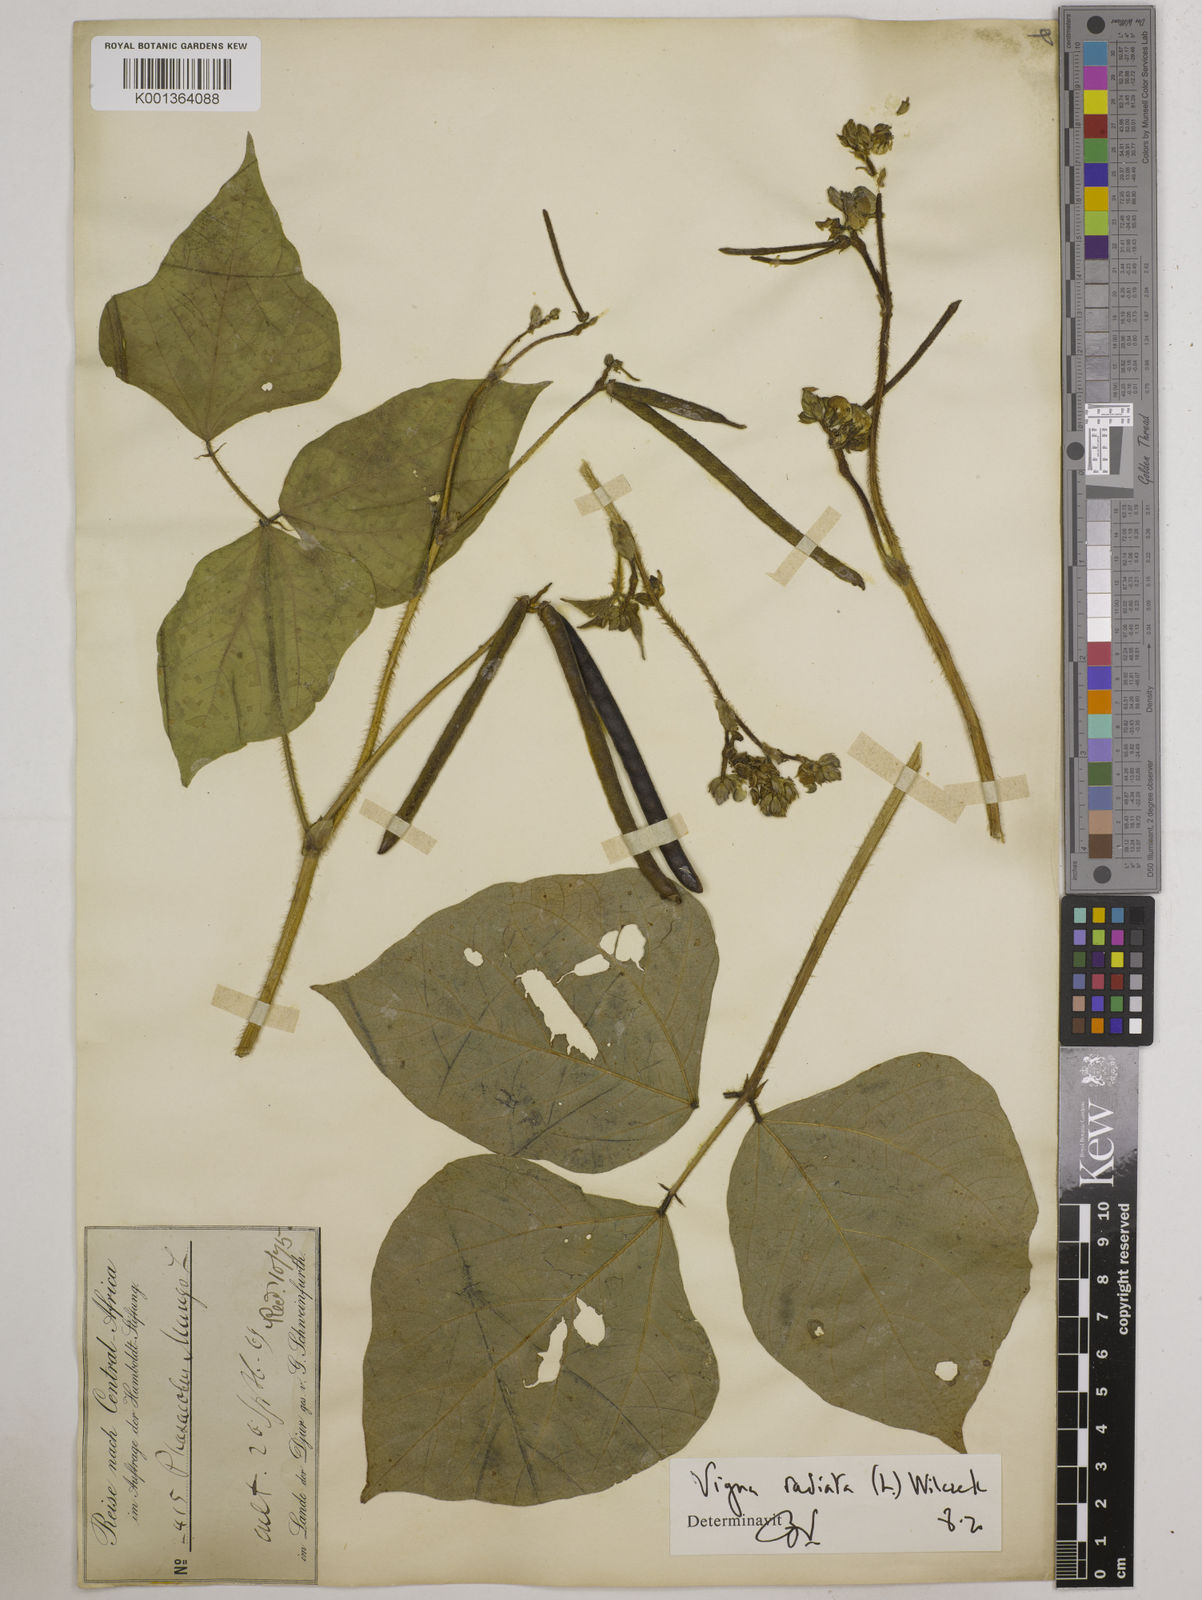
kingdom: Plantae
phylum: Tracheophyta
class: Magnoliopsida
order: Fabales
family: Fabaceae
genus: Vigna
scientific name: Vigna radiata
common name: Mung-bean
